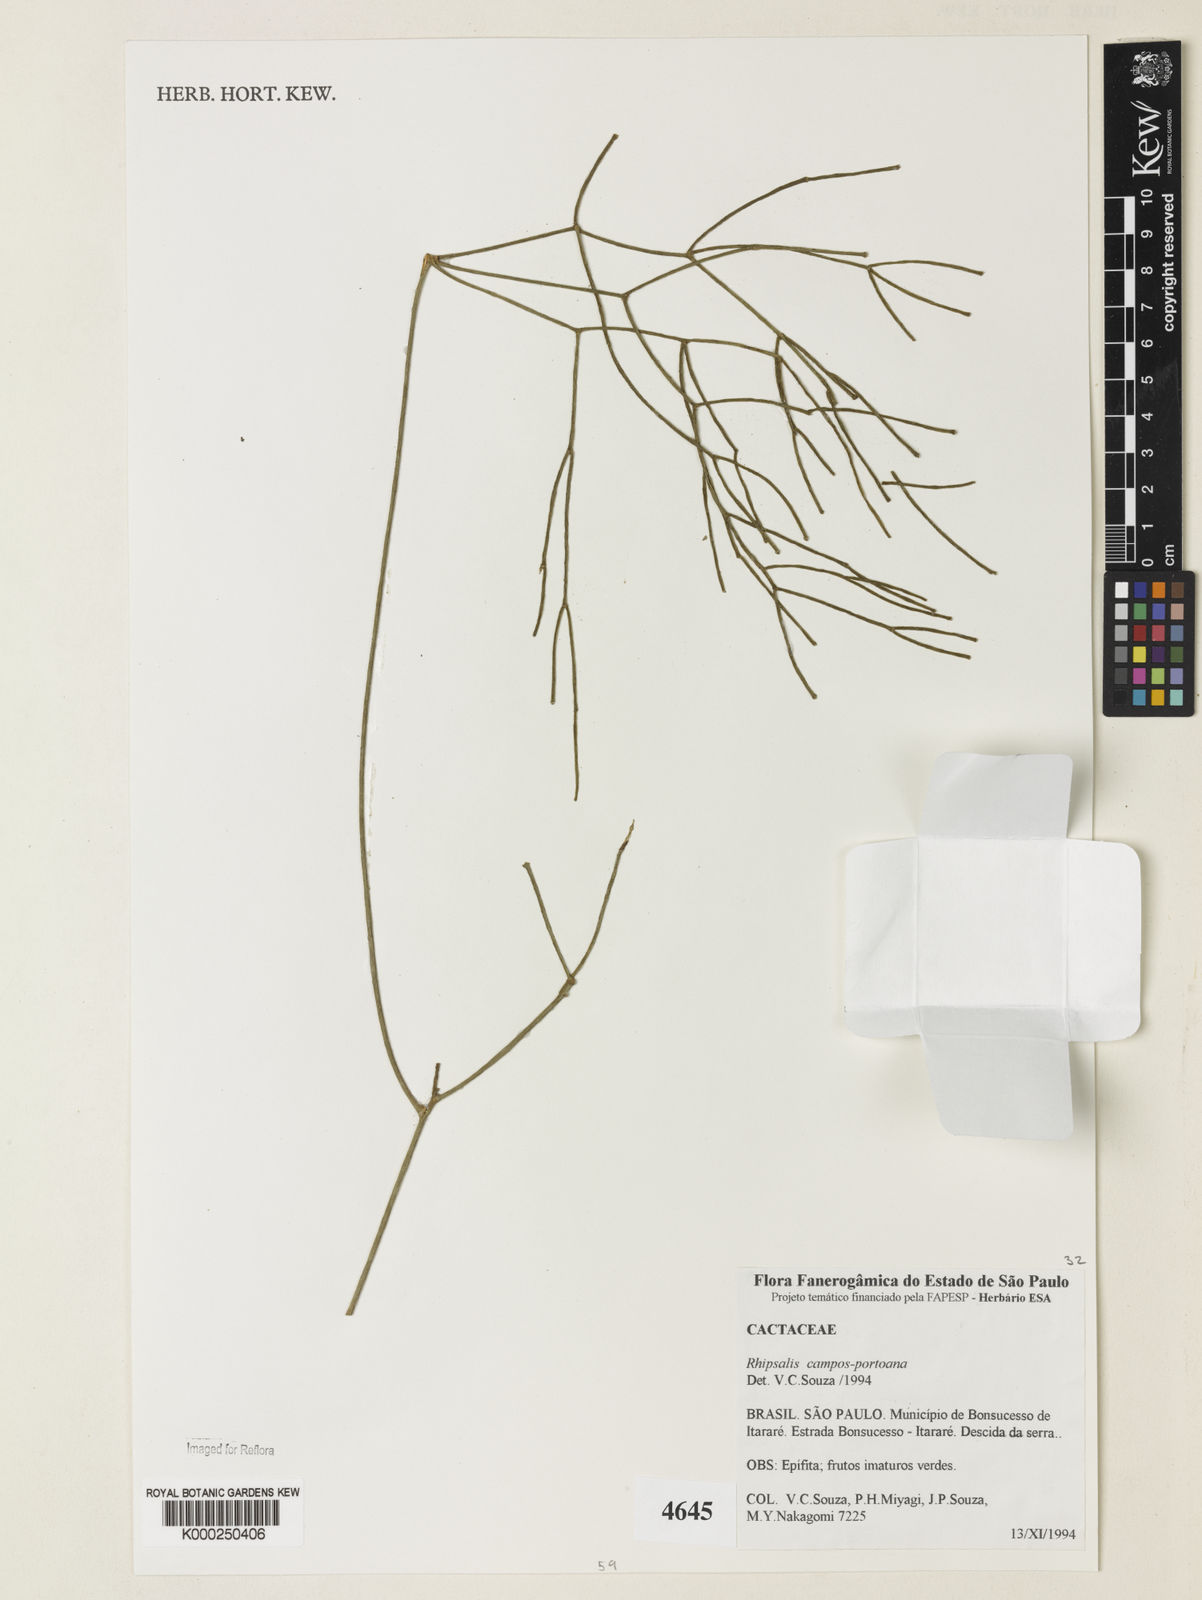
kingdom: Plantae
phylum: Tracheophyta
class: Magnoliopsida
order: Caryophyllales
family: Cactaceae
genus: Rhipsalis
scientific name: Rhipsalis
